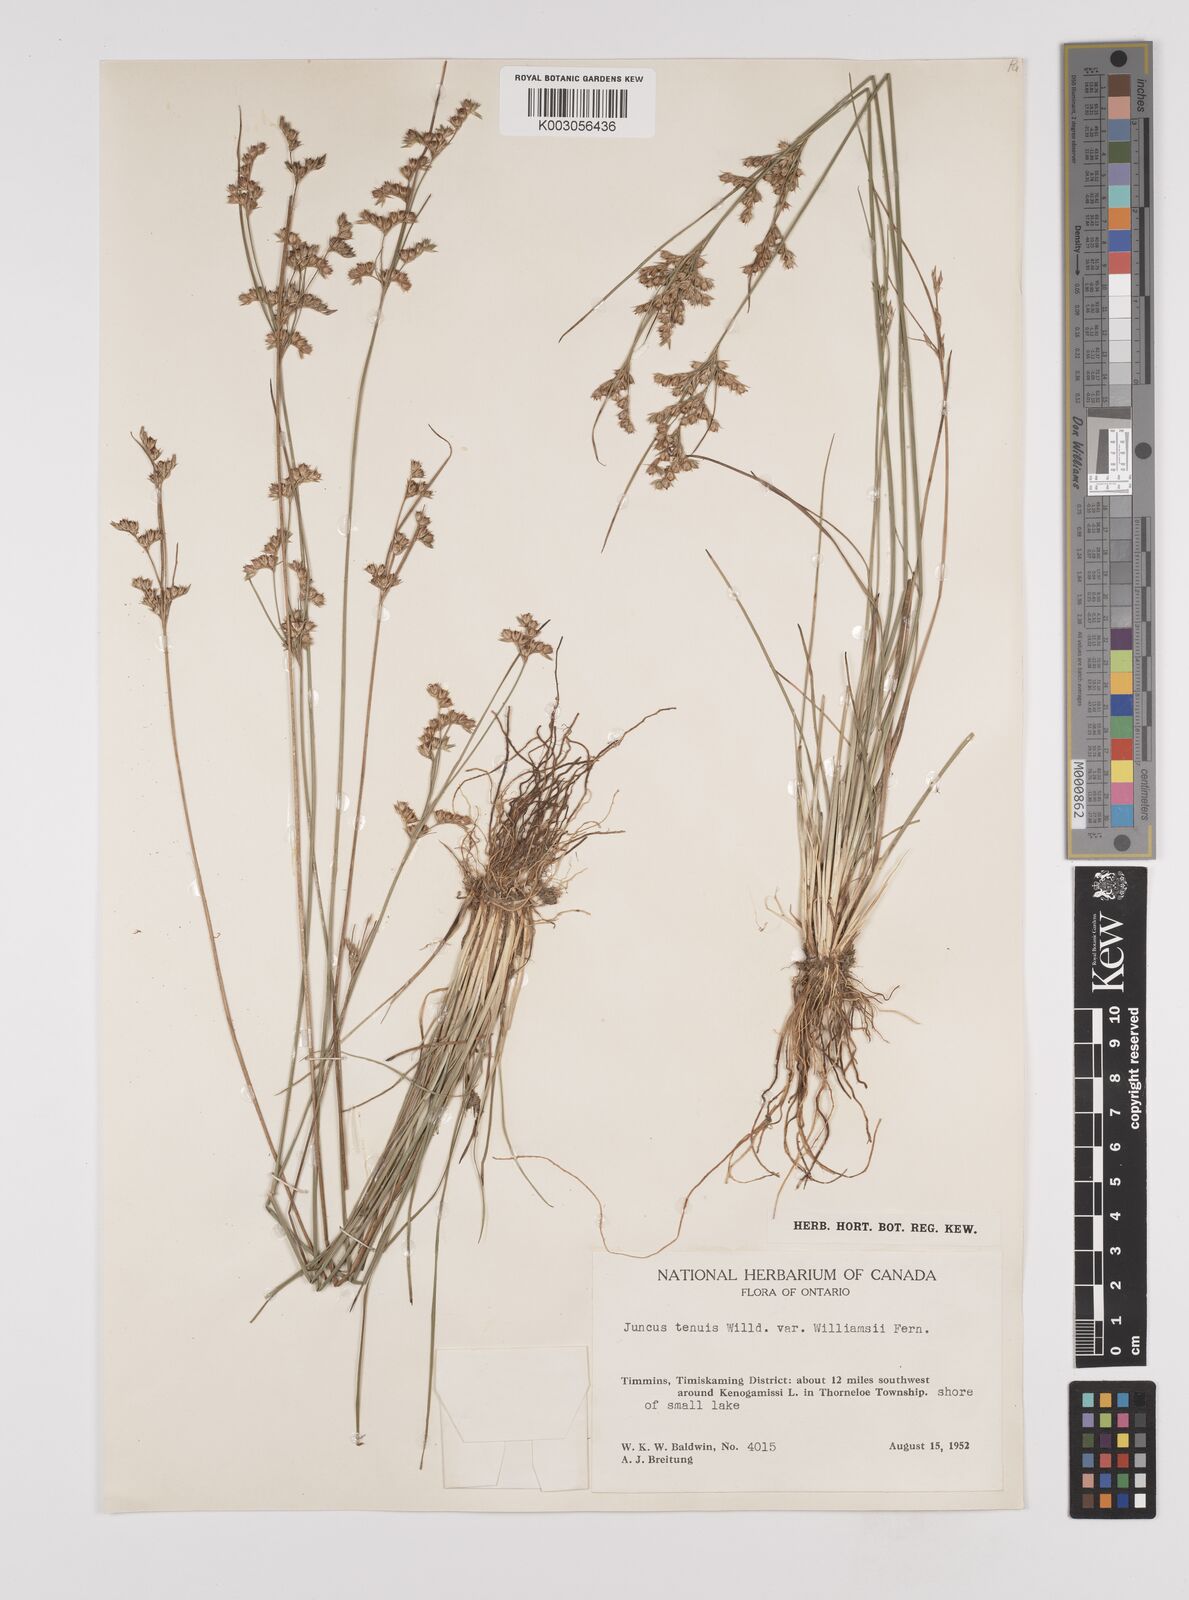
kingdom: Plantae
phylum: Tracheophyta
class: Liliopsida
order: Poales
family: Juncaceae
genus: Juncus
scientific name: Juncus tenuis
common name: Slender rush
